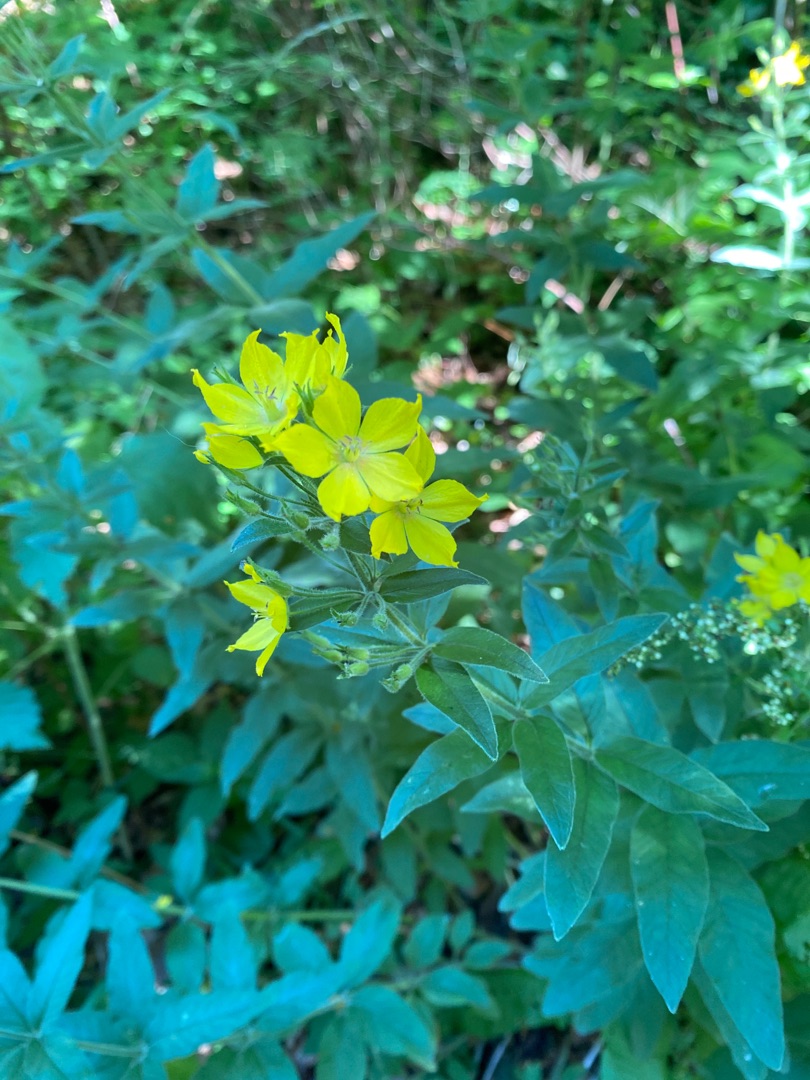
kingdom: Plantae
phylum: Tracheophyta
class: Magnoliopsida
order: Ericales
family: Primulaceae
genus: Lysimachia
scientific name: Lysimachia punctata
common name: Prikbladet fredløs
